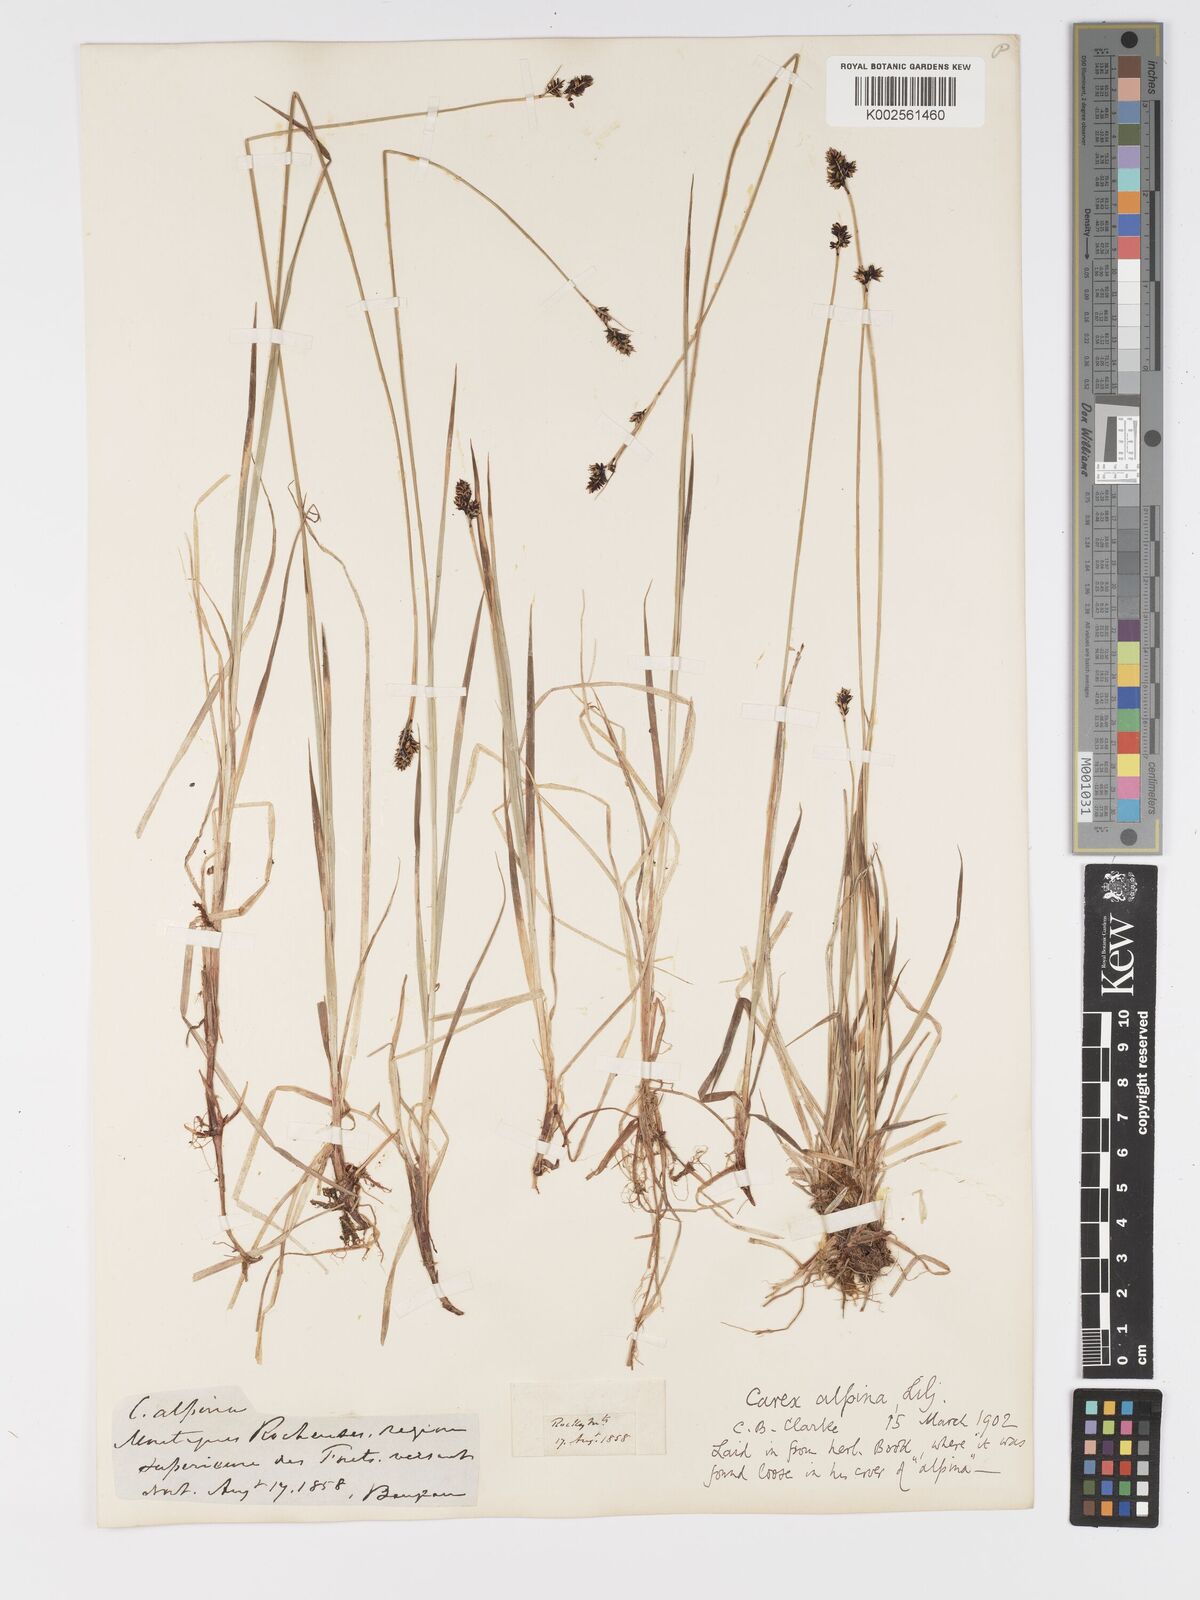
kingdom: Plantae
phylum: Tracheophyta
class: Liliopsida
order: Poales
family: Cyperaceae
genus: Carex
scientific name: Carex media
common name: Alpine sedge
